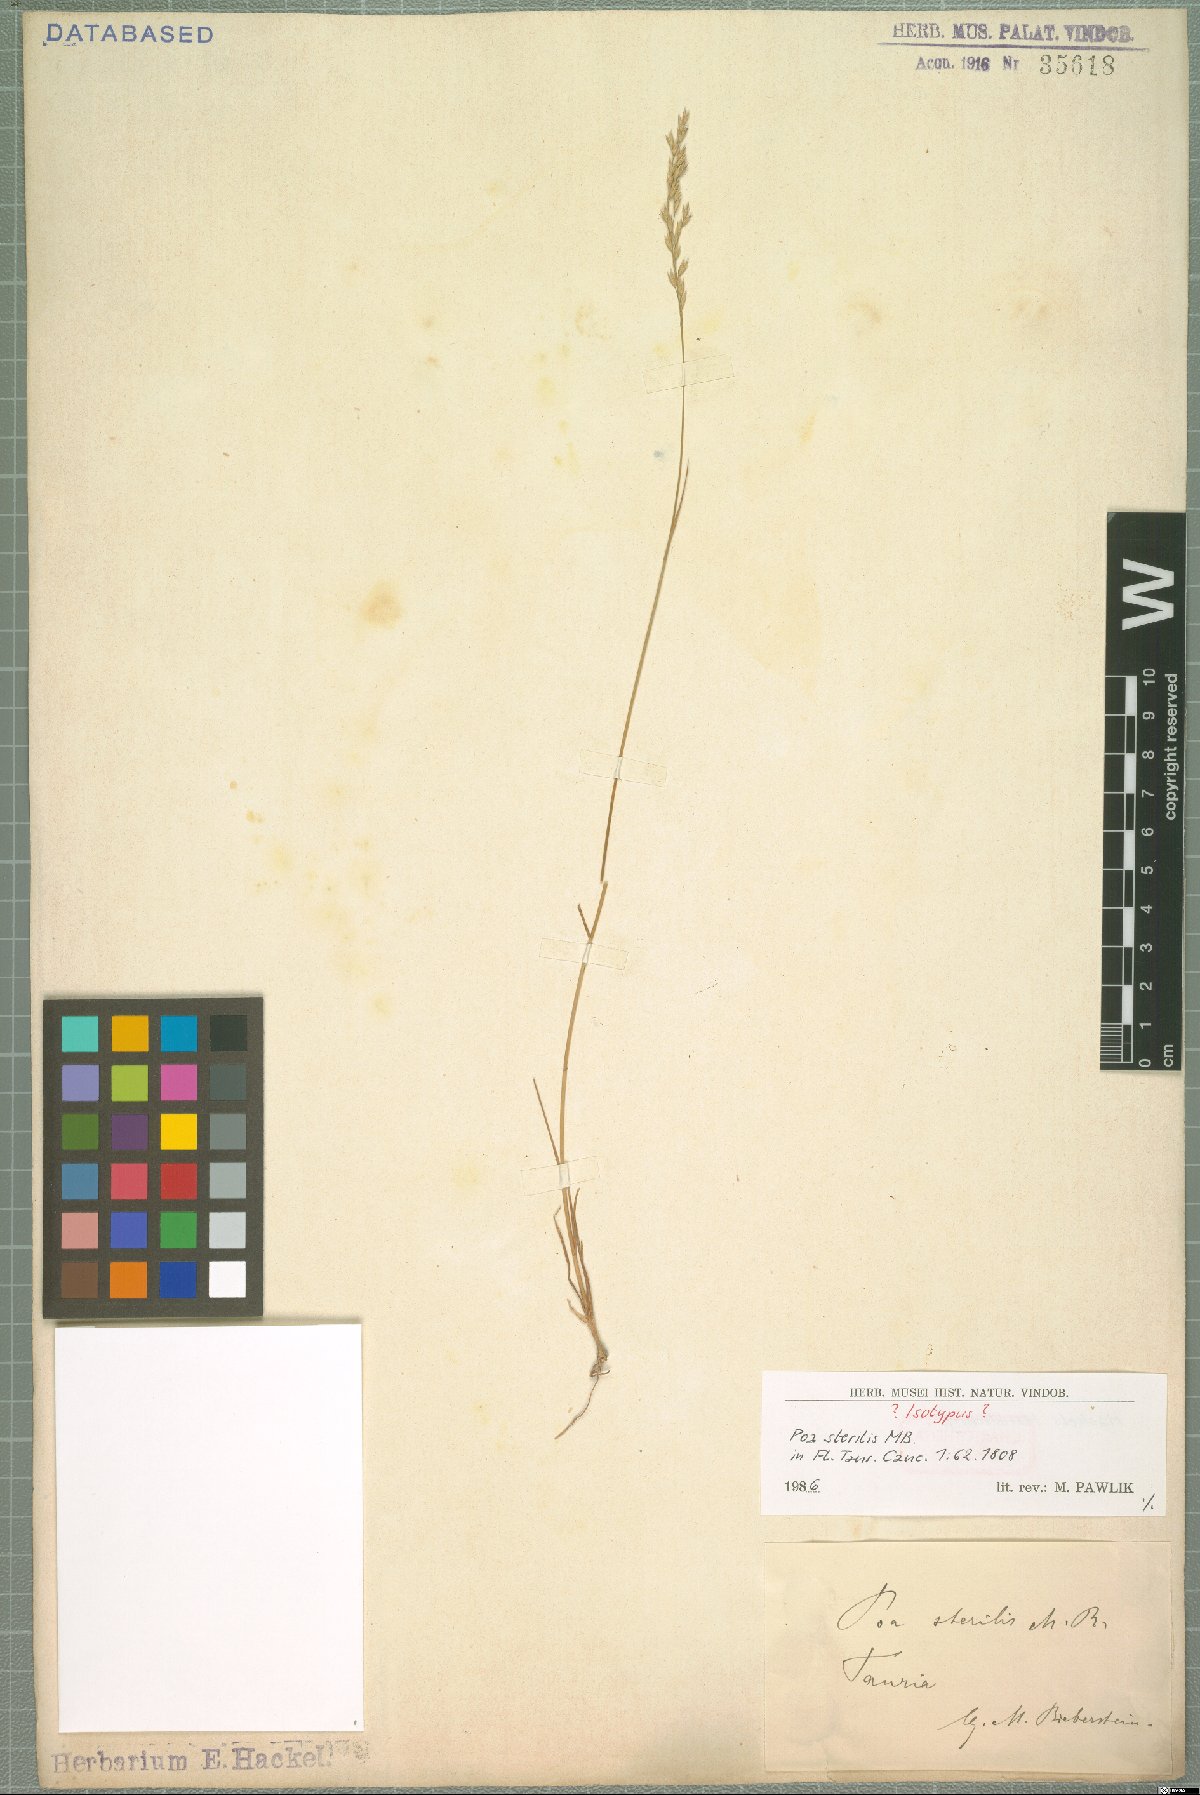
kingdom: Plantae
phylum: Tracheophyta
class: Liliopsida
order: Poales
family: Poaceae
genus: Poa
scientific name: Poa sterilis
